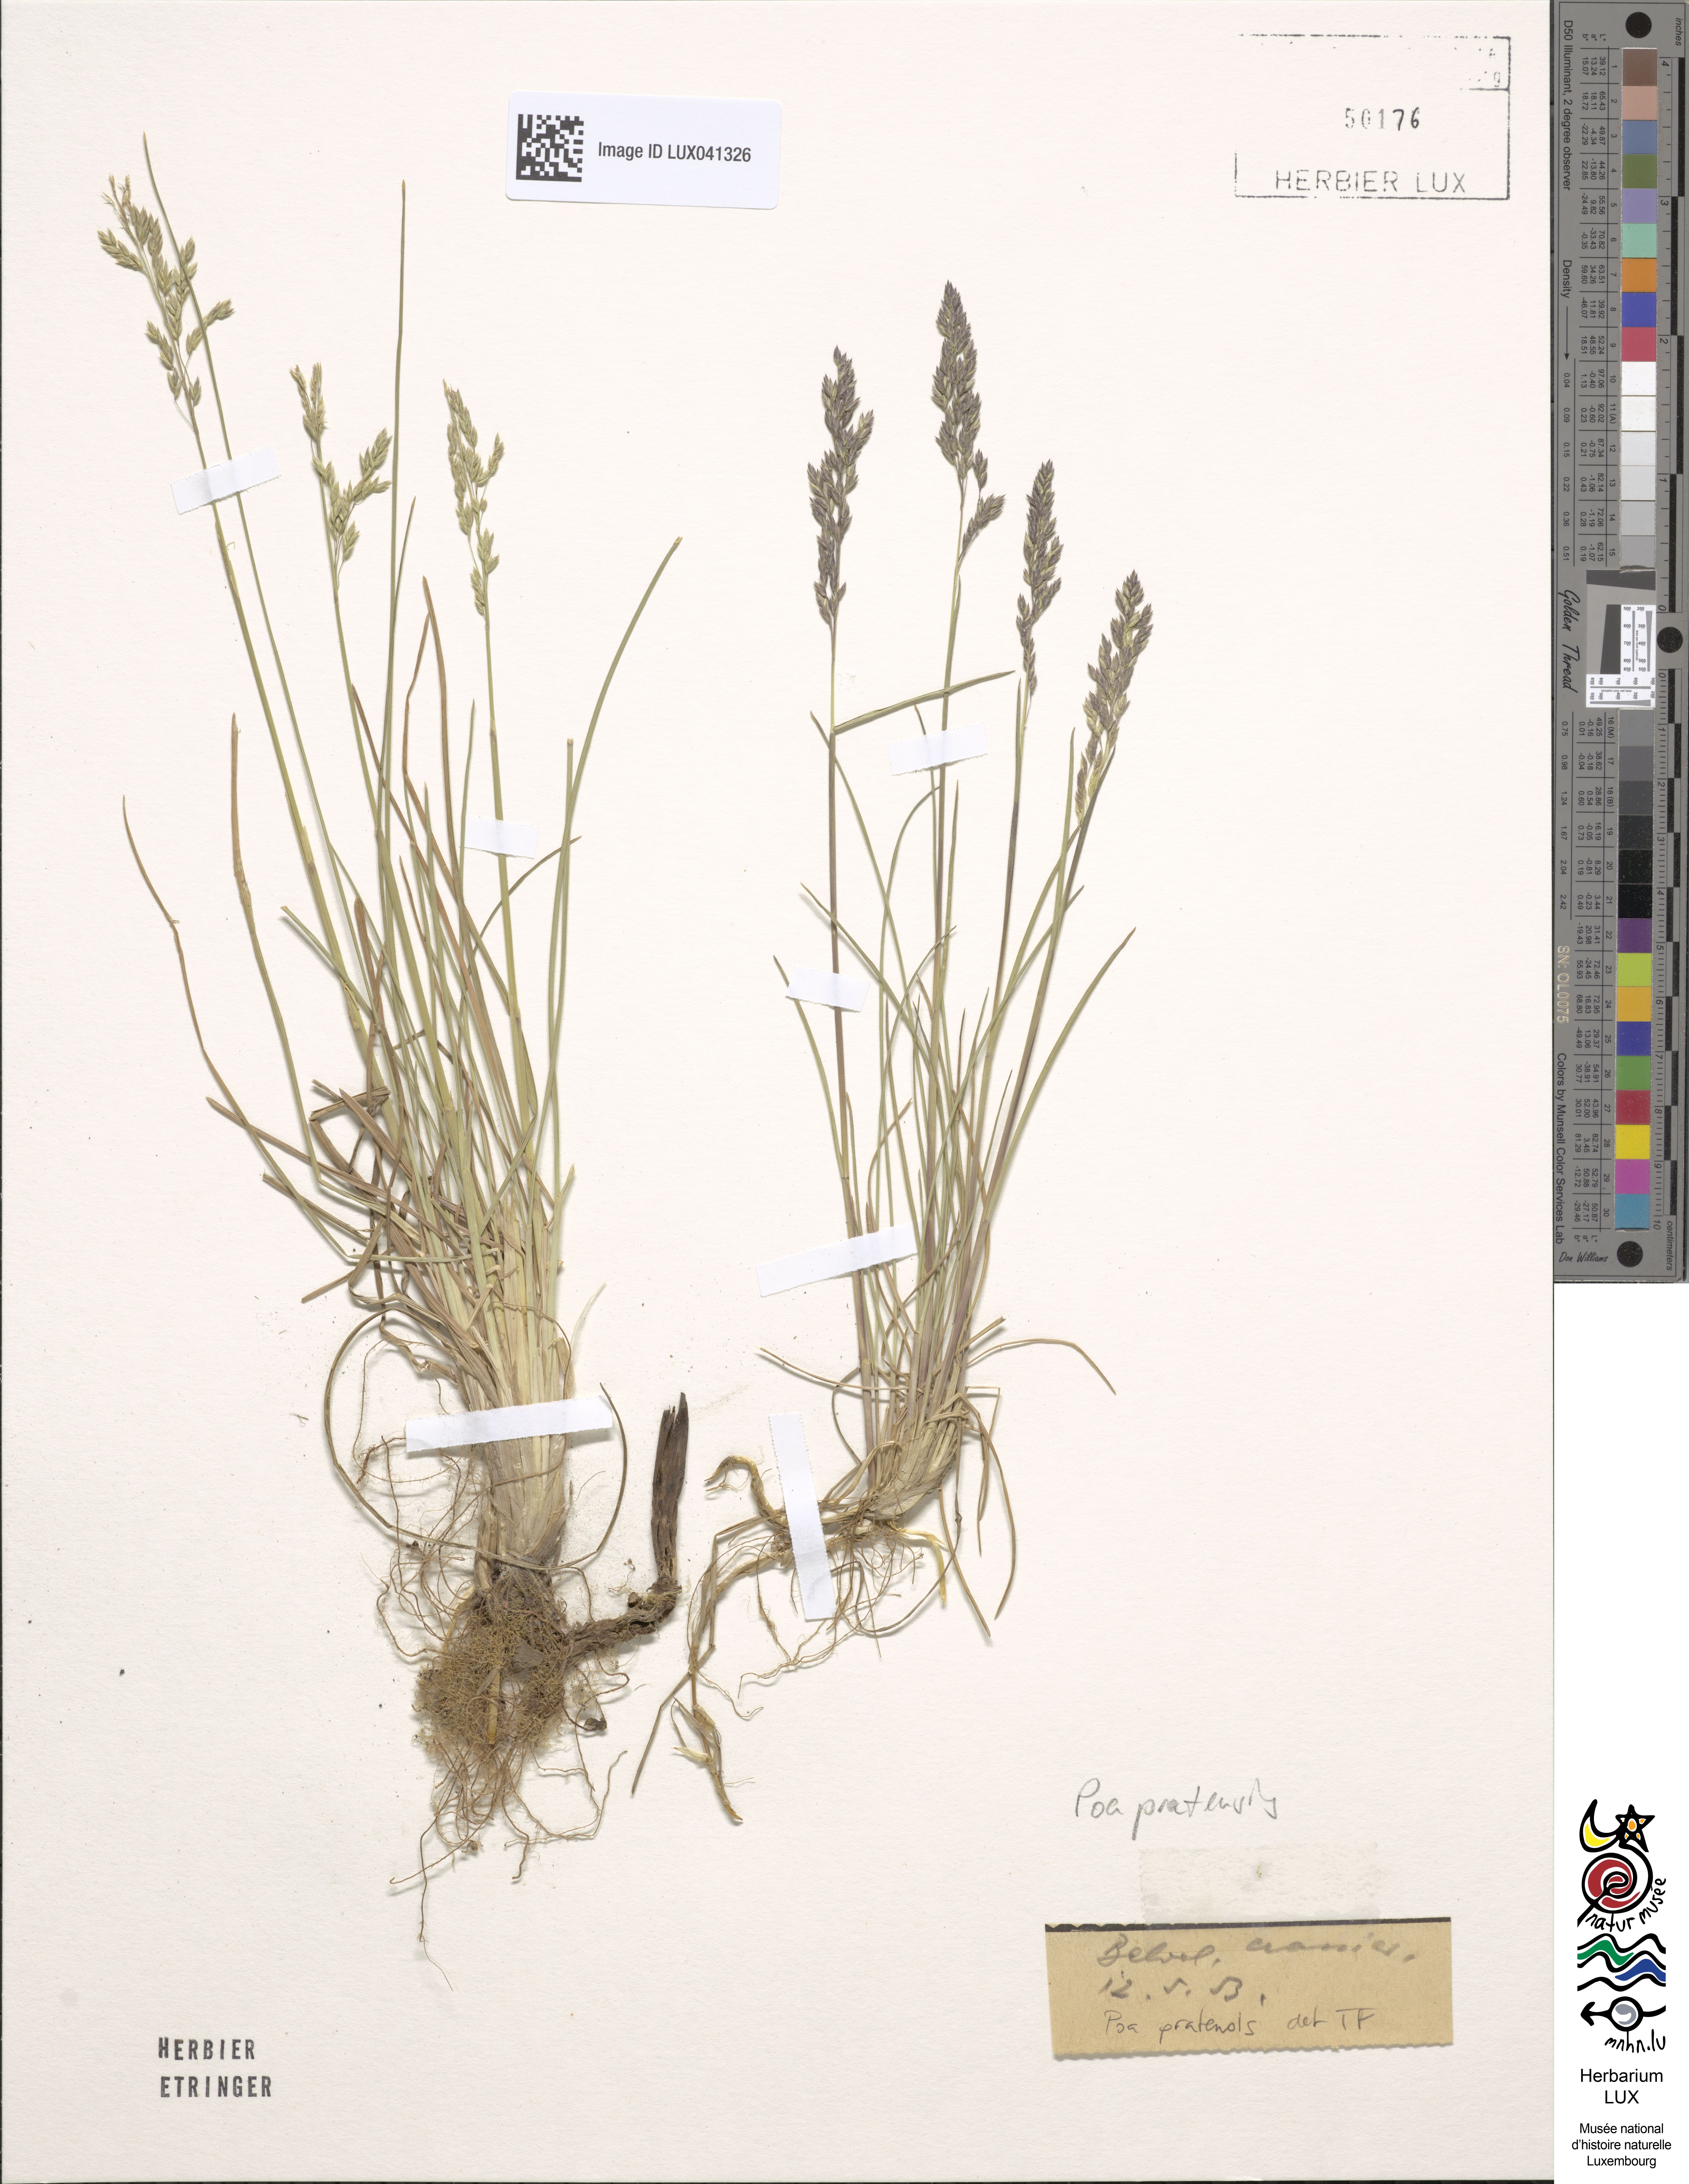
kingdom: Plantae
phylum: Tracheophyta
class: Liliopsida
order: Poales
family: Poaceae
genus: Poa
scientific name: Poa pratensis
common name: Kentucky bluegrass
